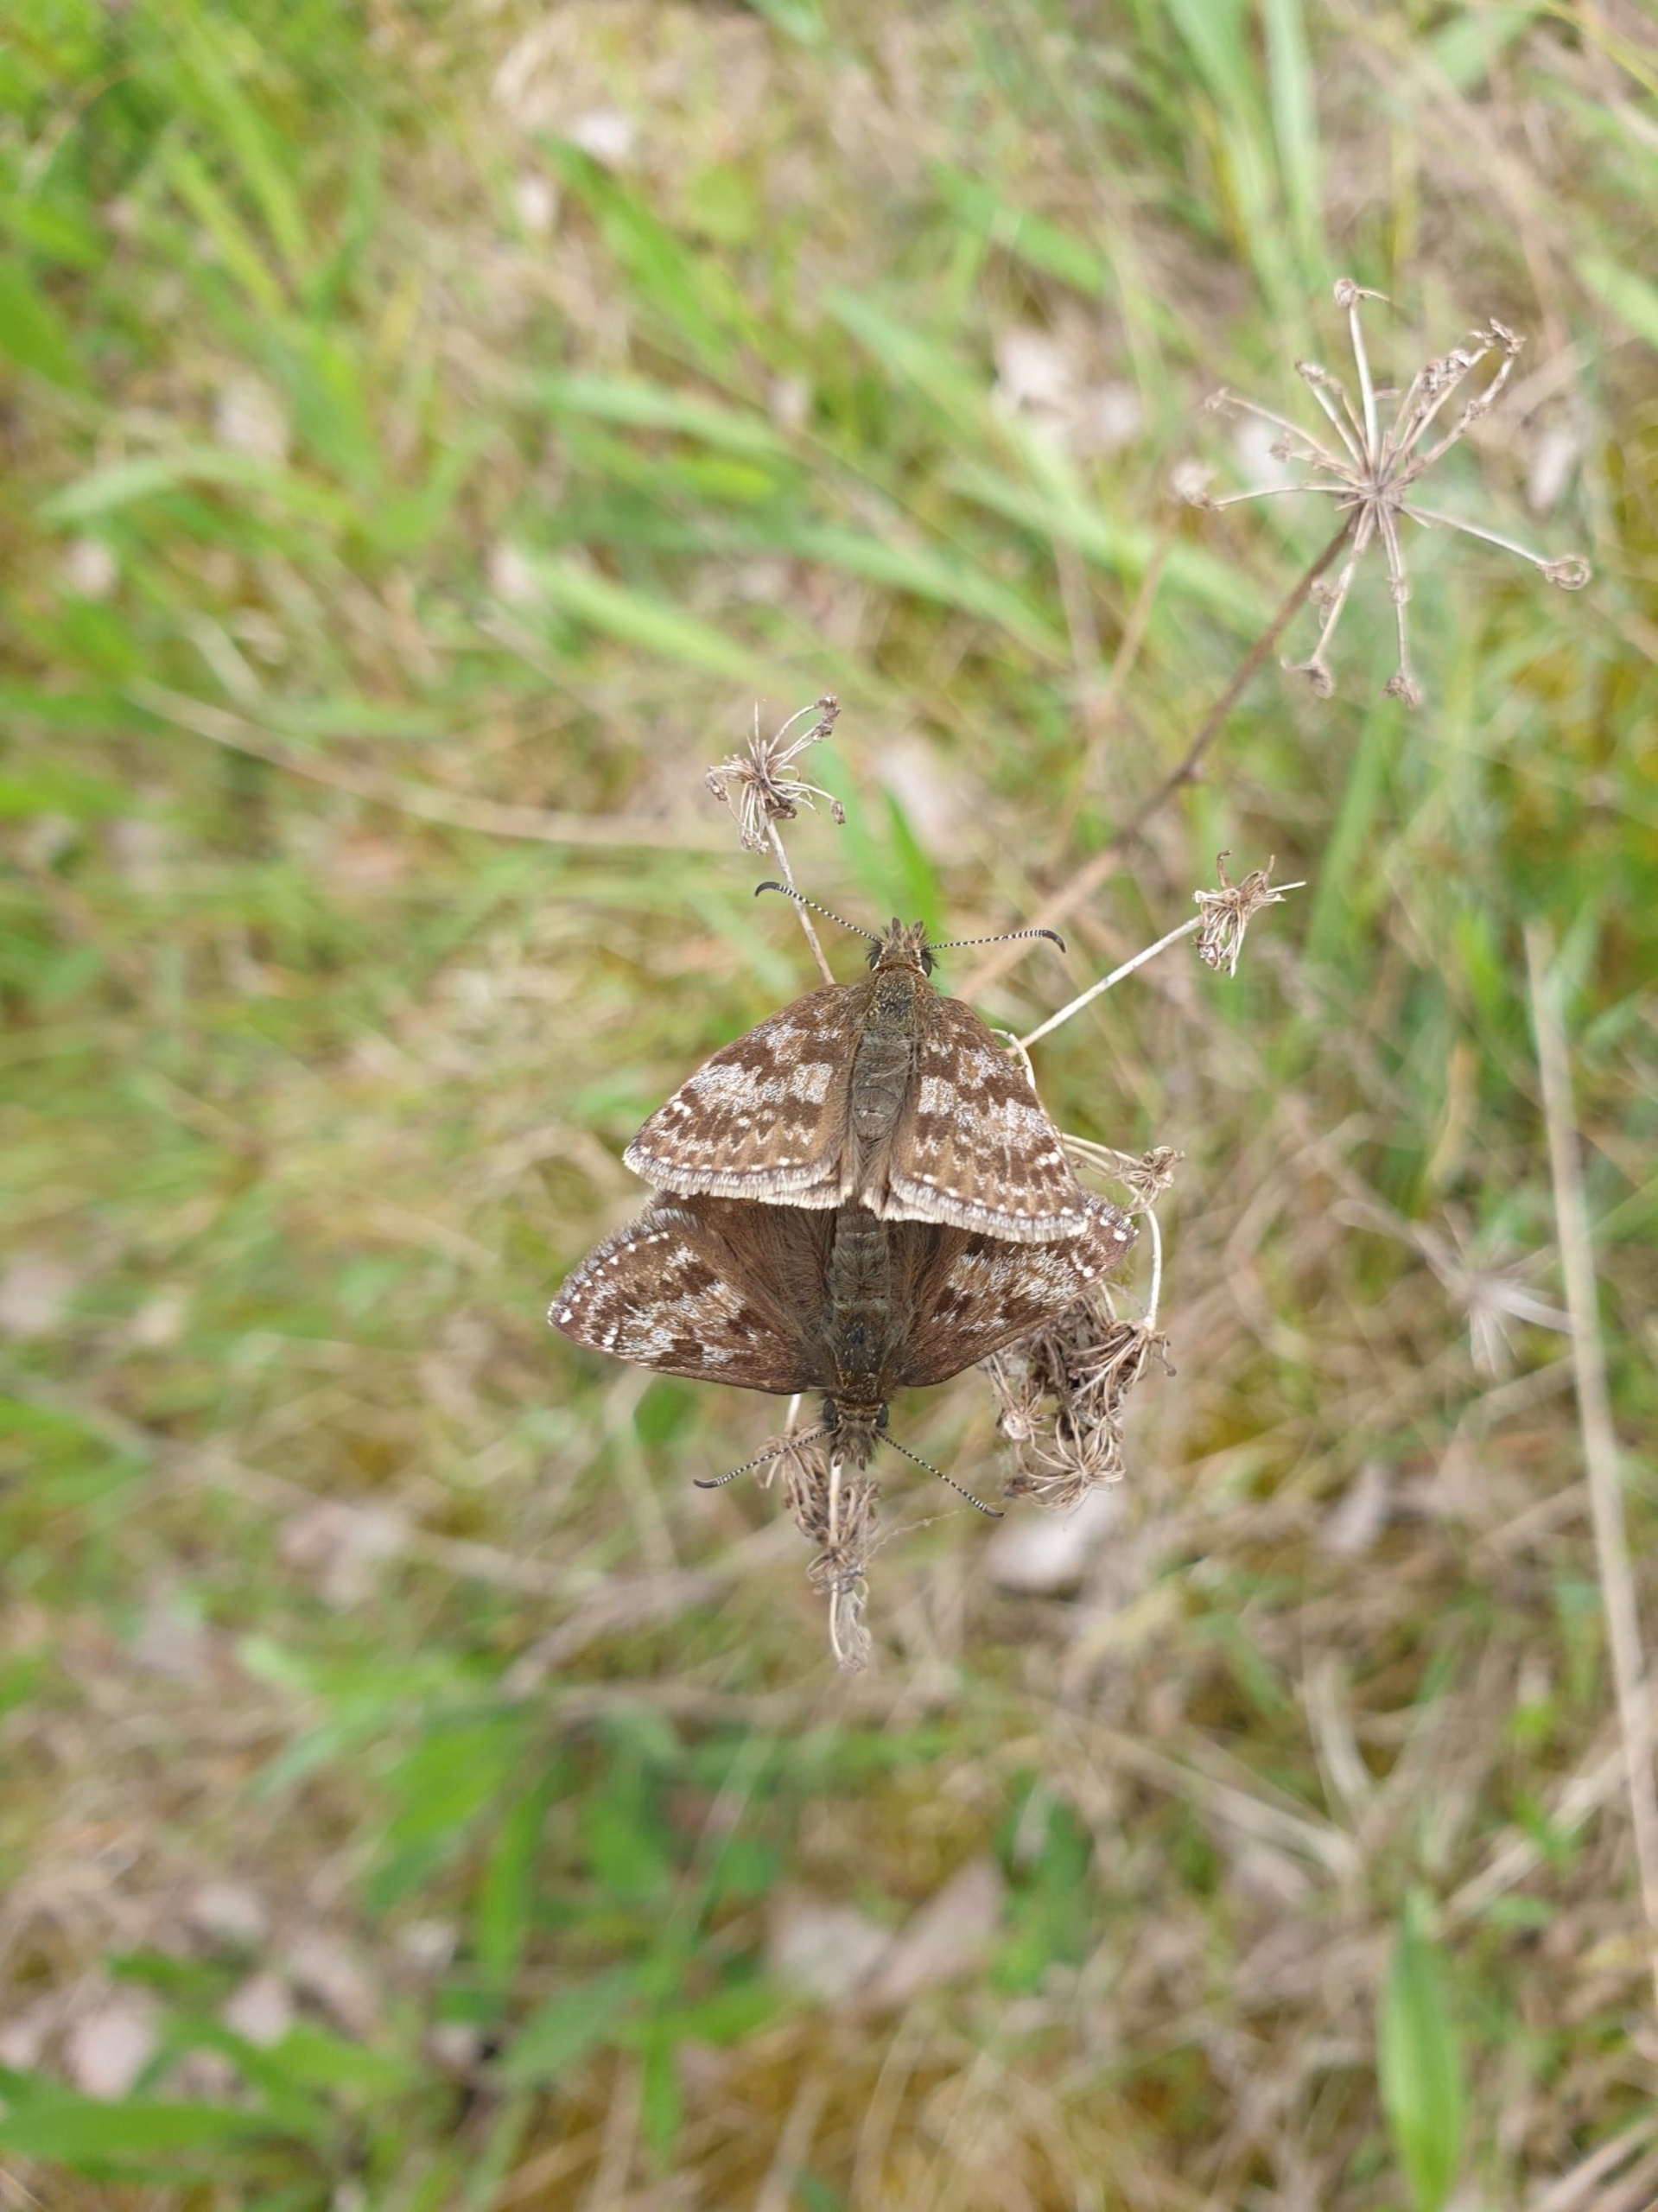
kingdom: Animalia
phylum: Arthropoda
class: Insecta
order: Lepidoptera
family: Hesperiidae
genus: Erynnis
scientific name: Erynnis tages
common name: Gråbåndet bredpande
